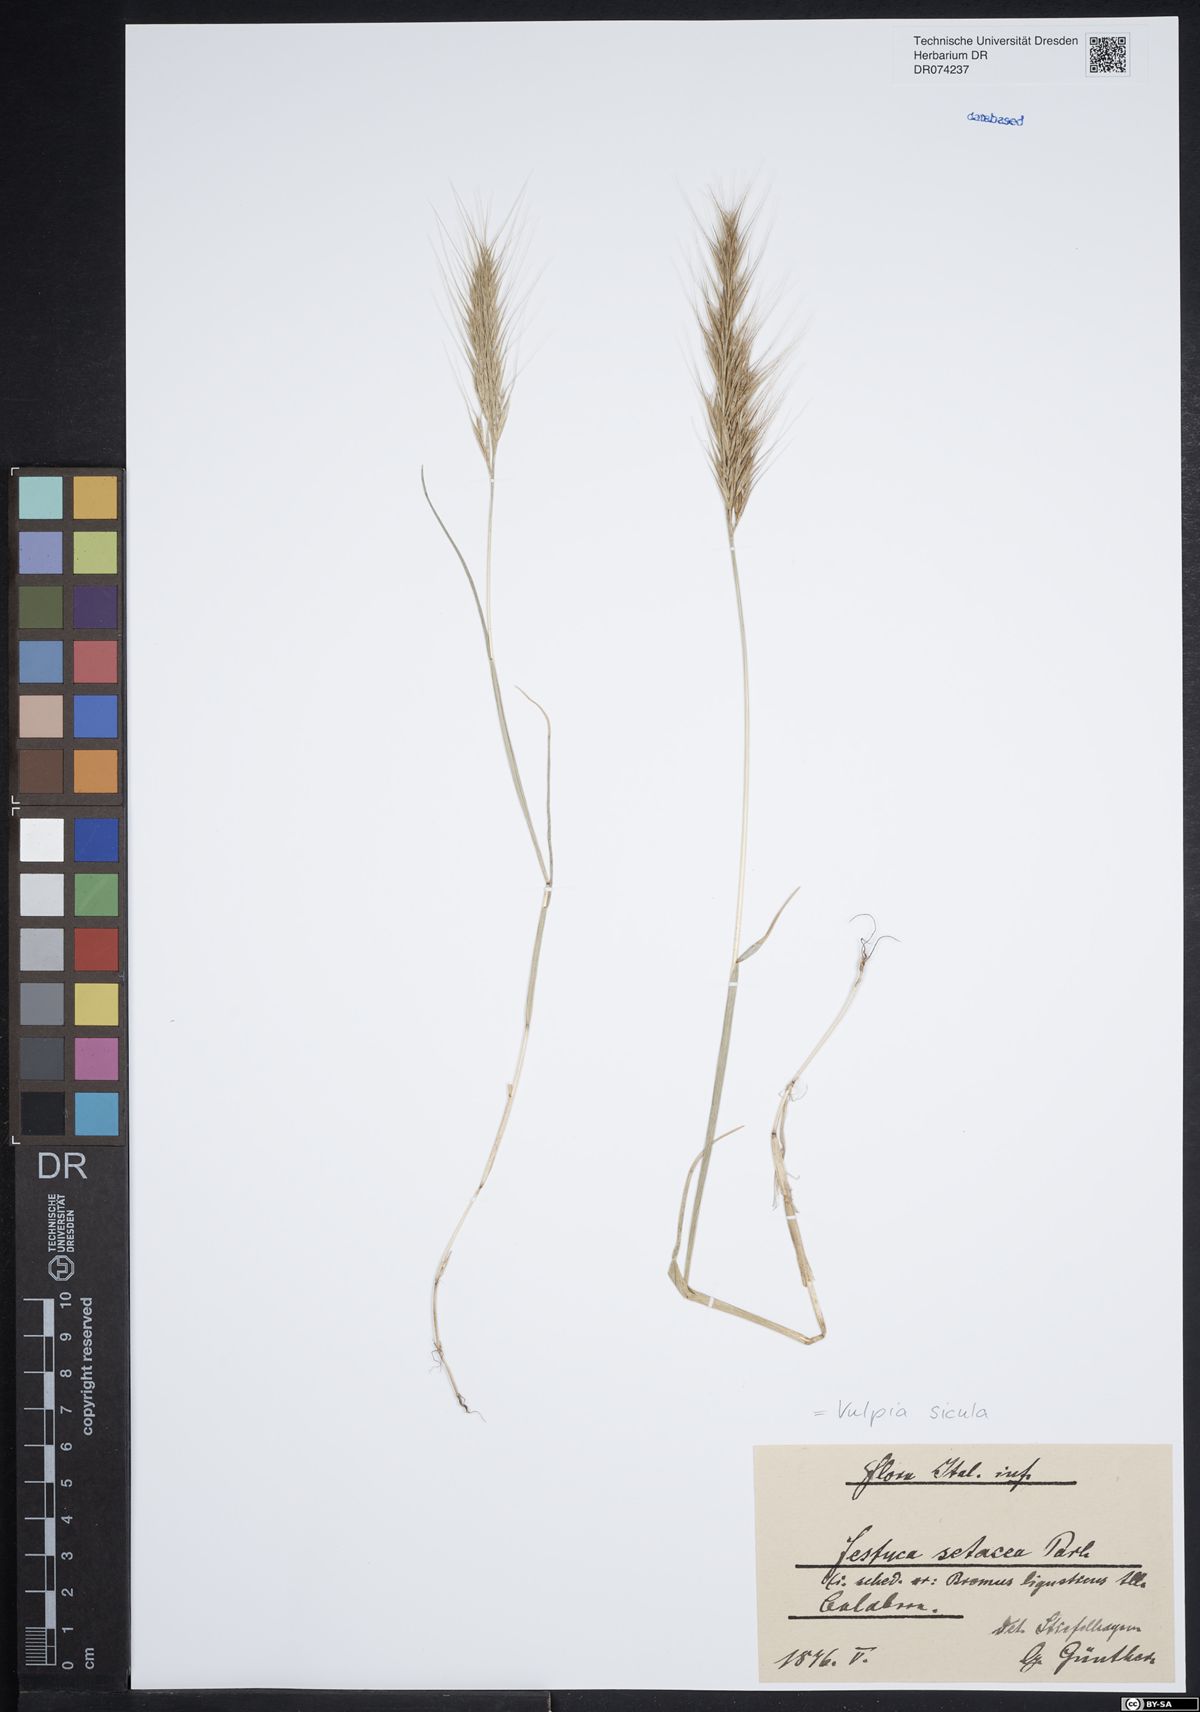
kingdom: Plantae
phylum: Tracheophyta
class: Liliopsida
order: Poales
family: Poaceae
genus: Festuca
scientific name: Festuca sicula
